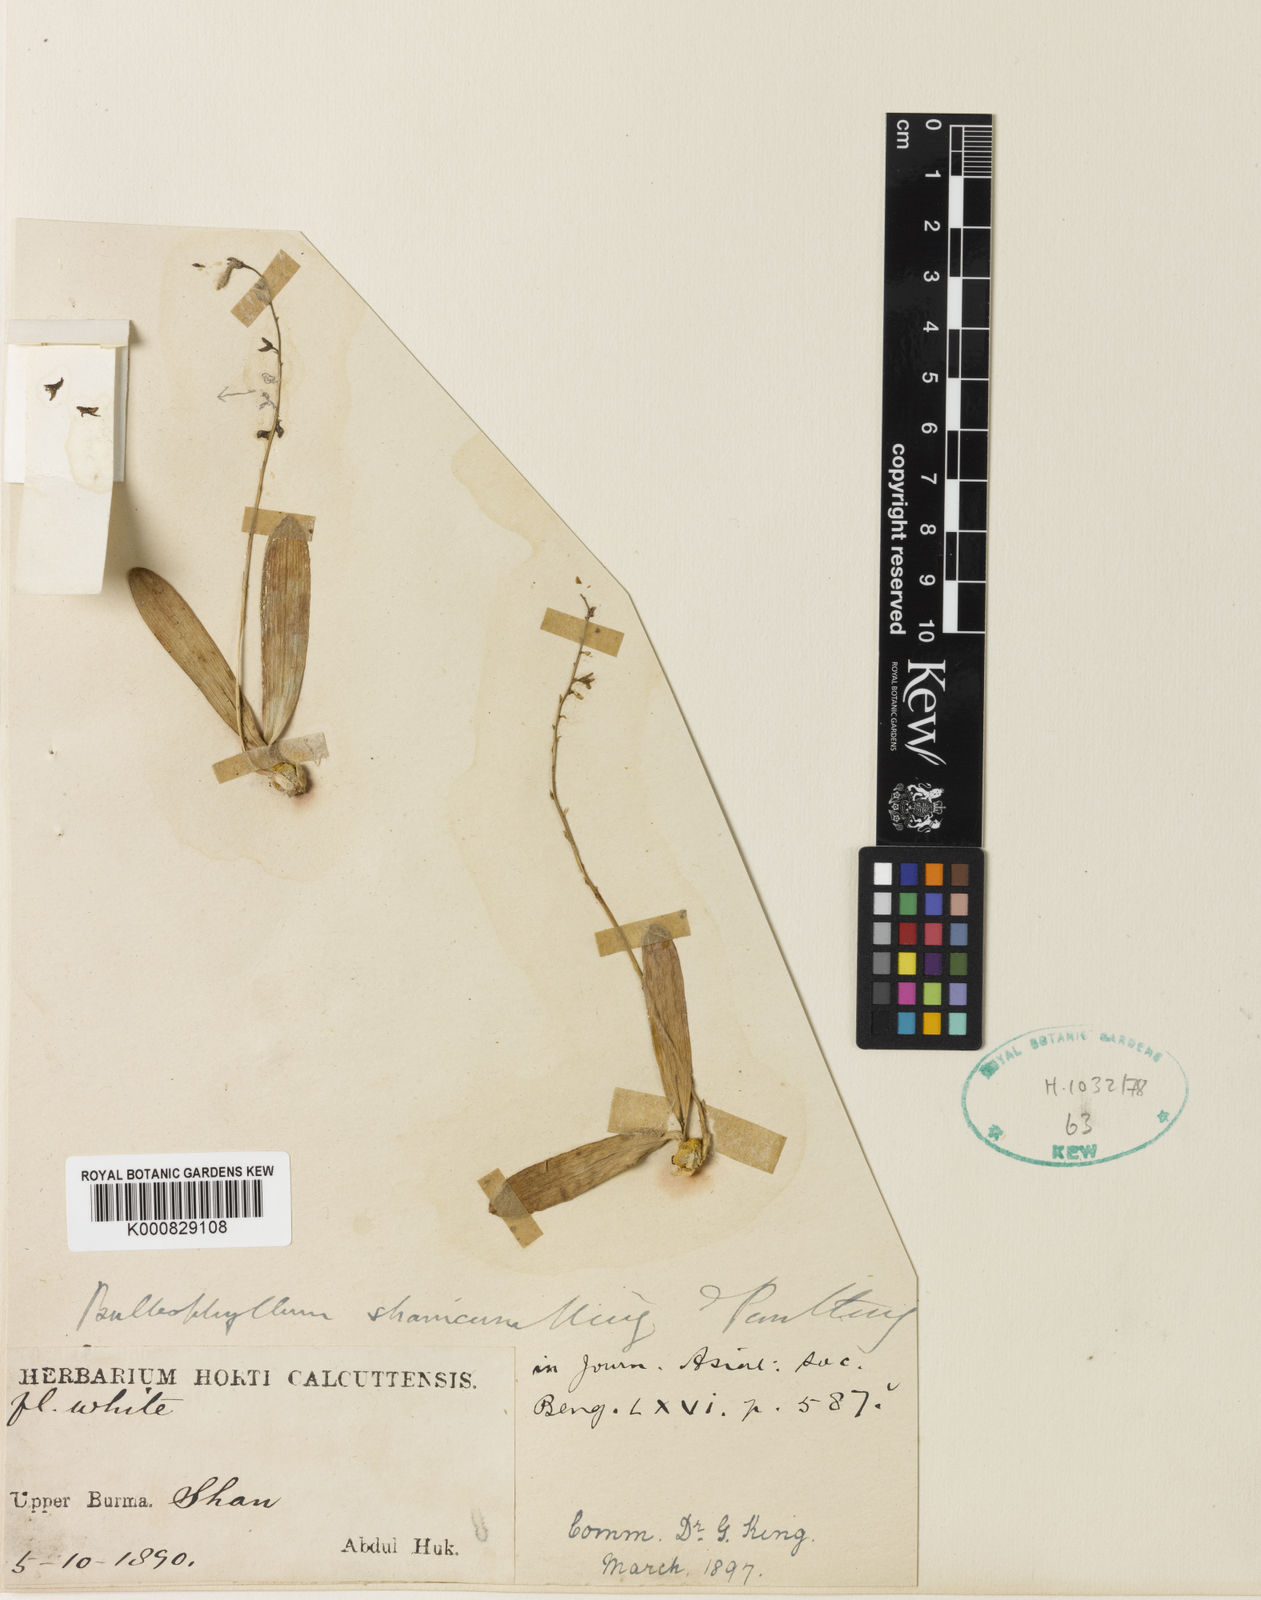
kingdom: Plantae
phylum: Tracheophyta
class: Liliopsida
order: Asparagales
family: Orchidaceae
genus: Bulbophyllum
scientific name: Bulbophyllum shanicum
